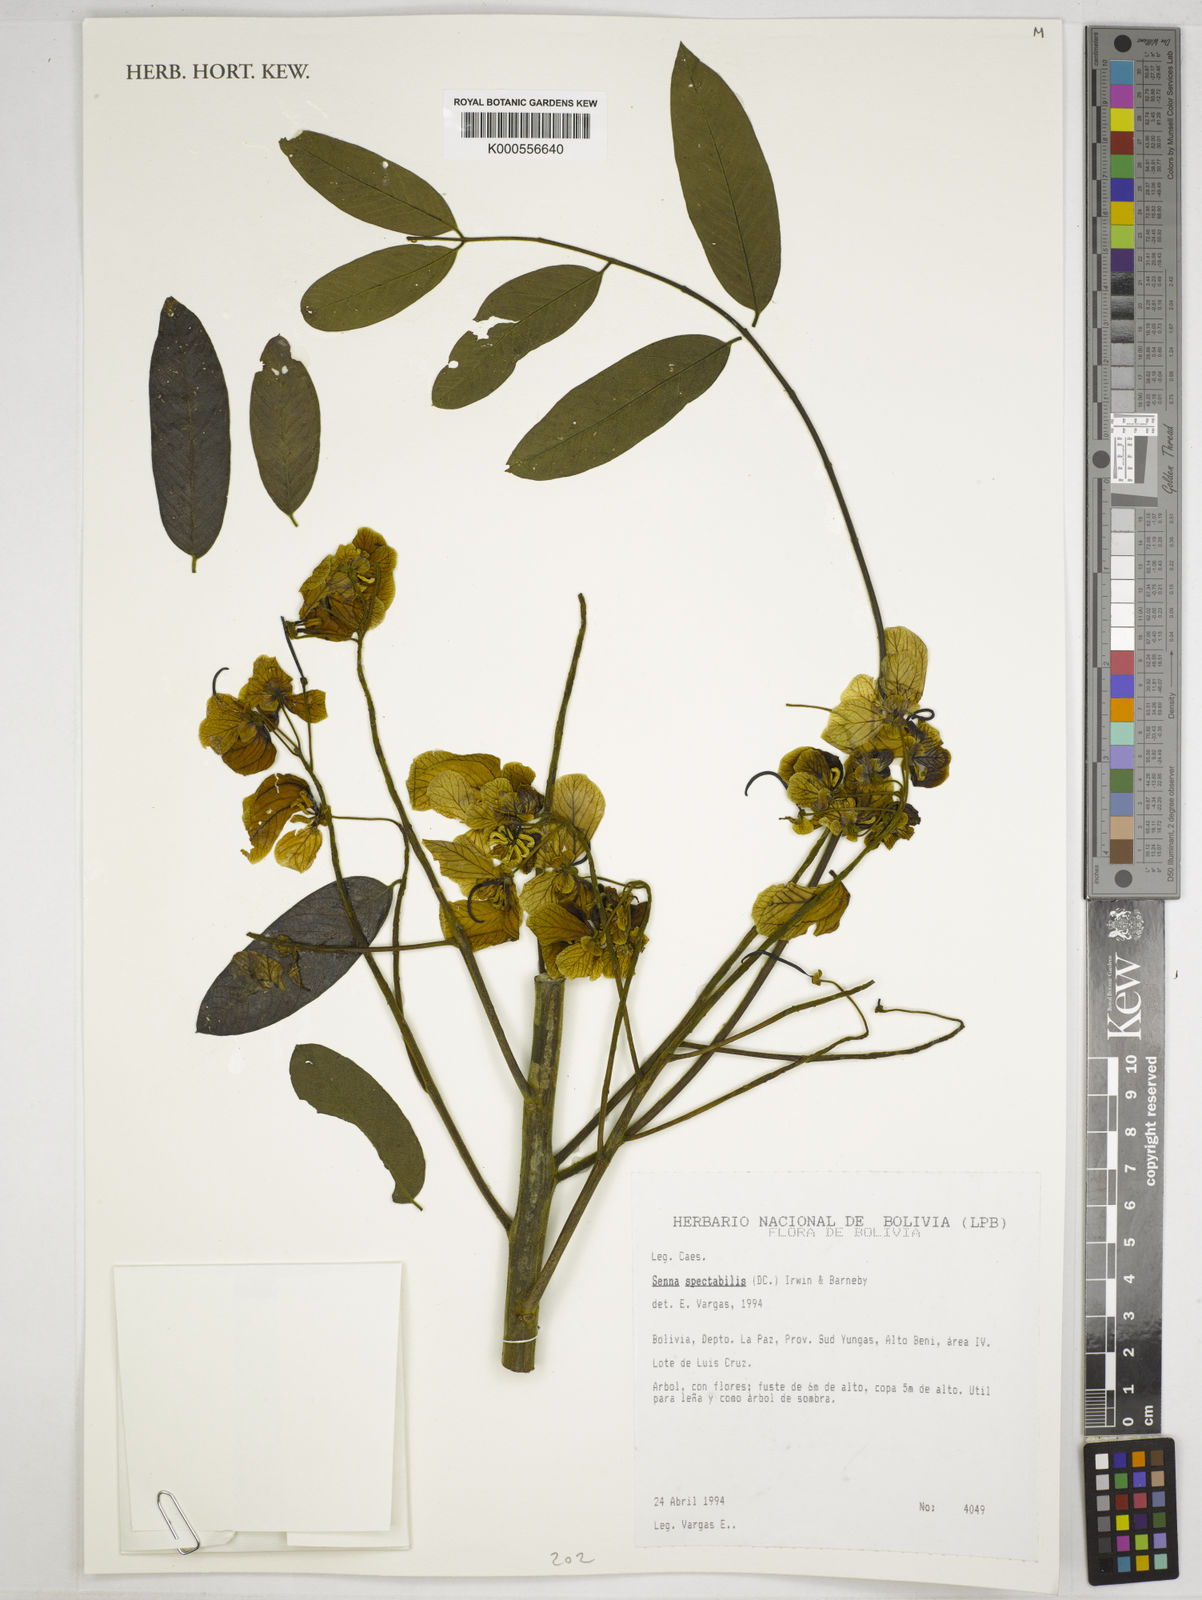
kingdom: Plantae
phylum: Tracheophyta
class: Magnoliopsida
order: Fabales
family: Fabaceae
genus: Senna
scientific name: Senna spectabilis
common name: Casia amarilla
